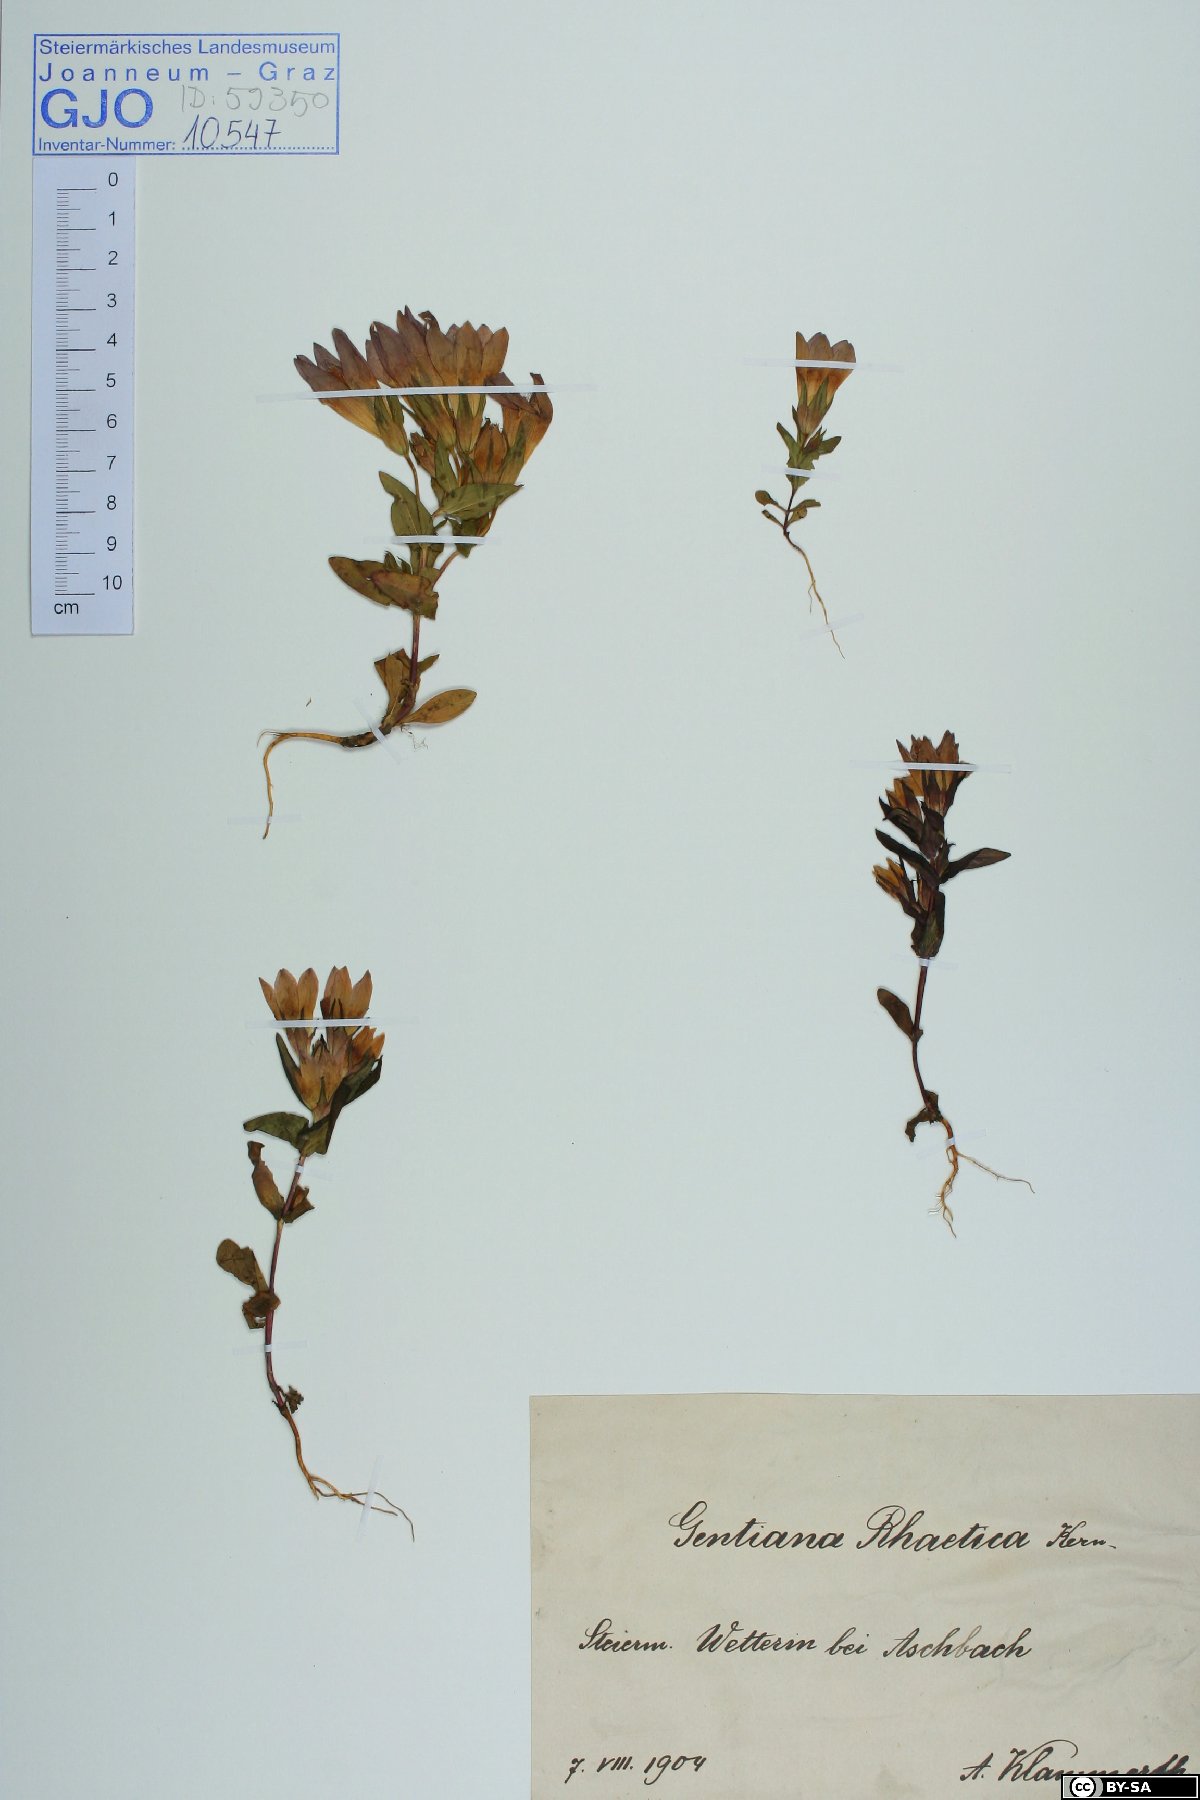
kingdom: Plantae
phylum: Tracheophyta
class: Magnoliopsida
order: Gentianales
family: Gentianaceae
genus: Gentianella
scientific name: Gentianella rhaetica
